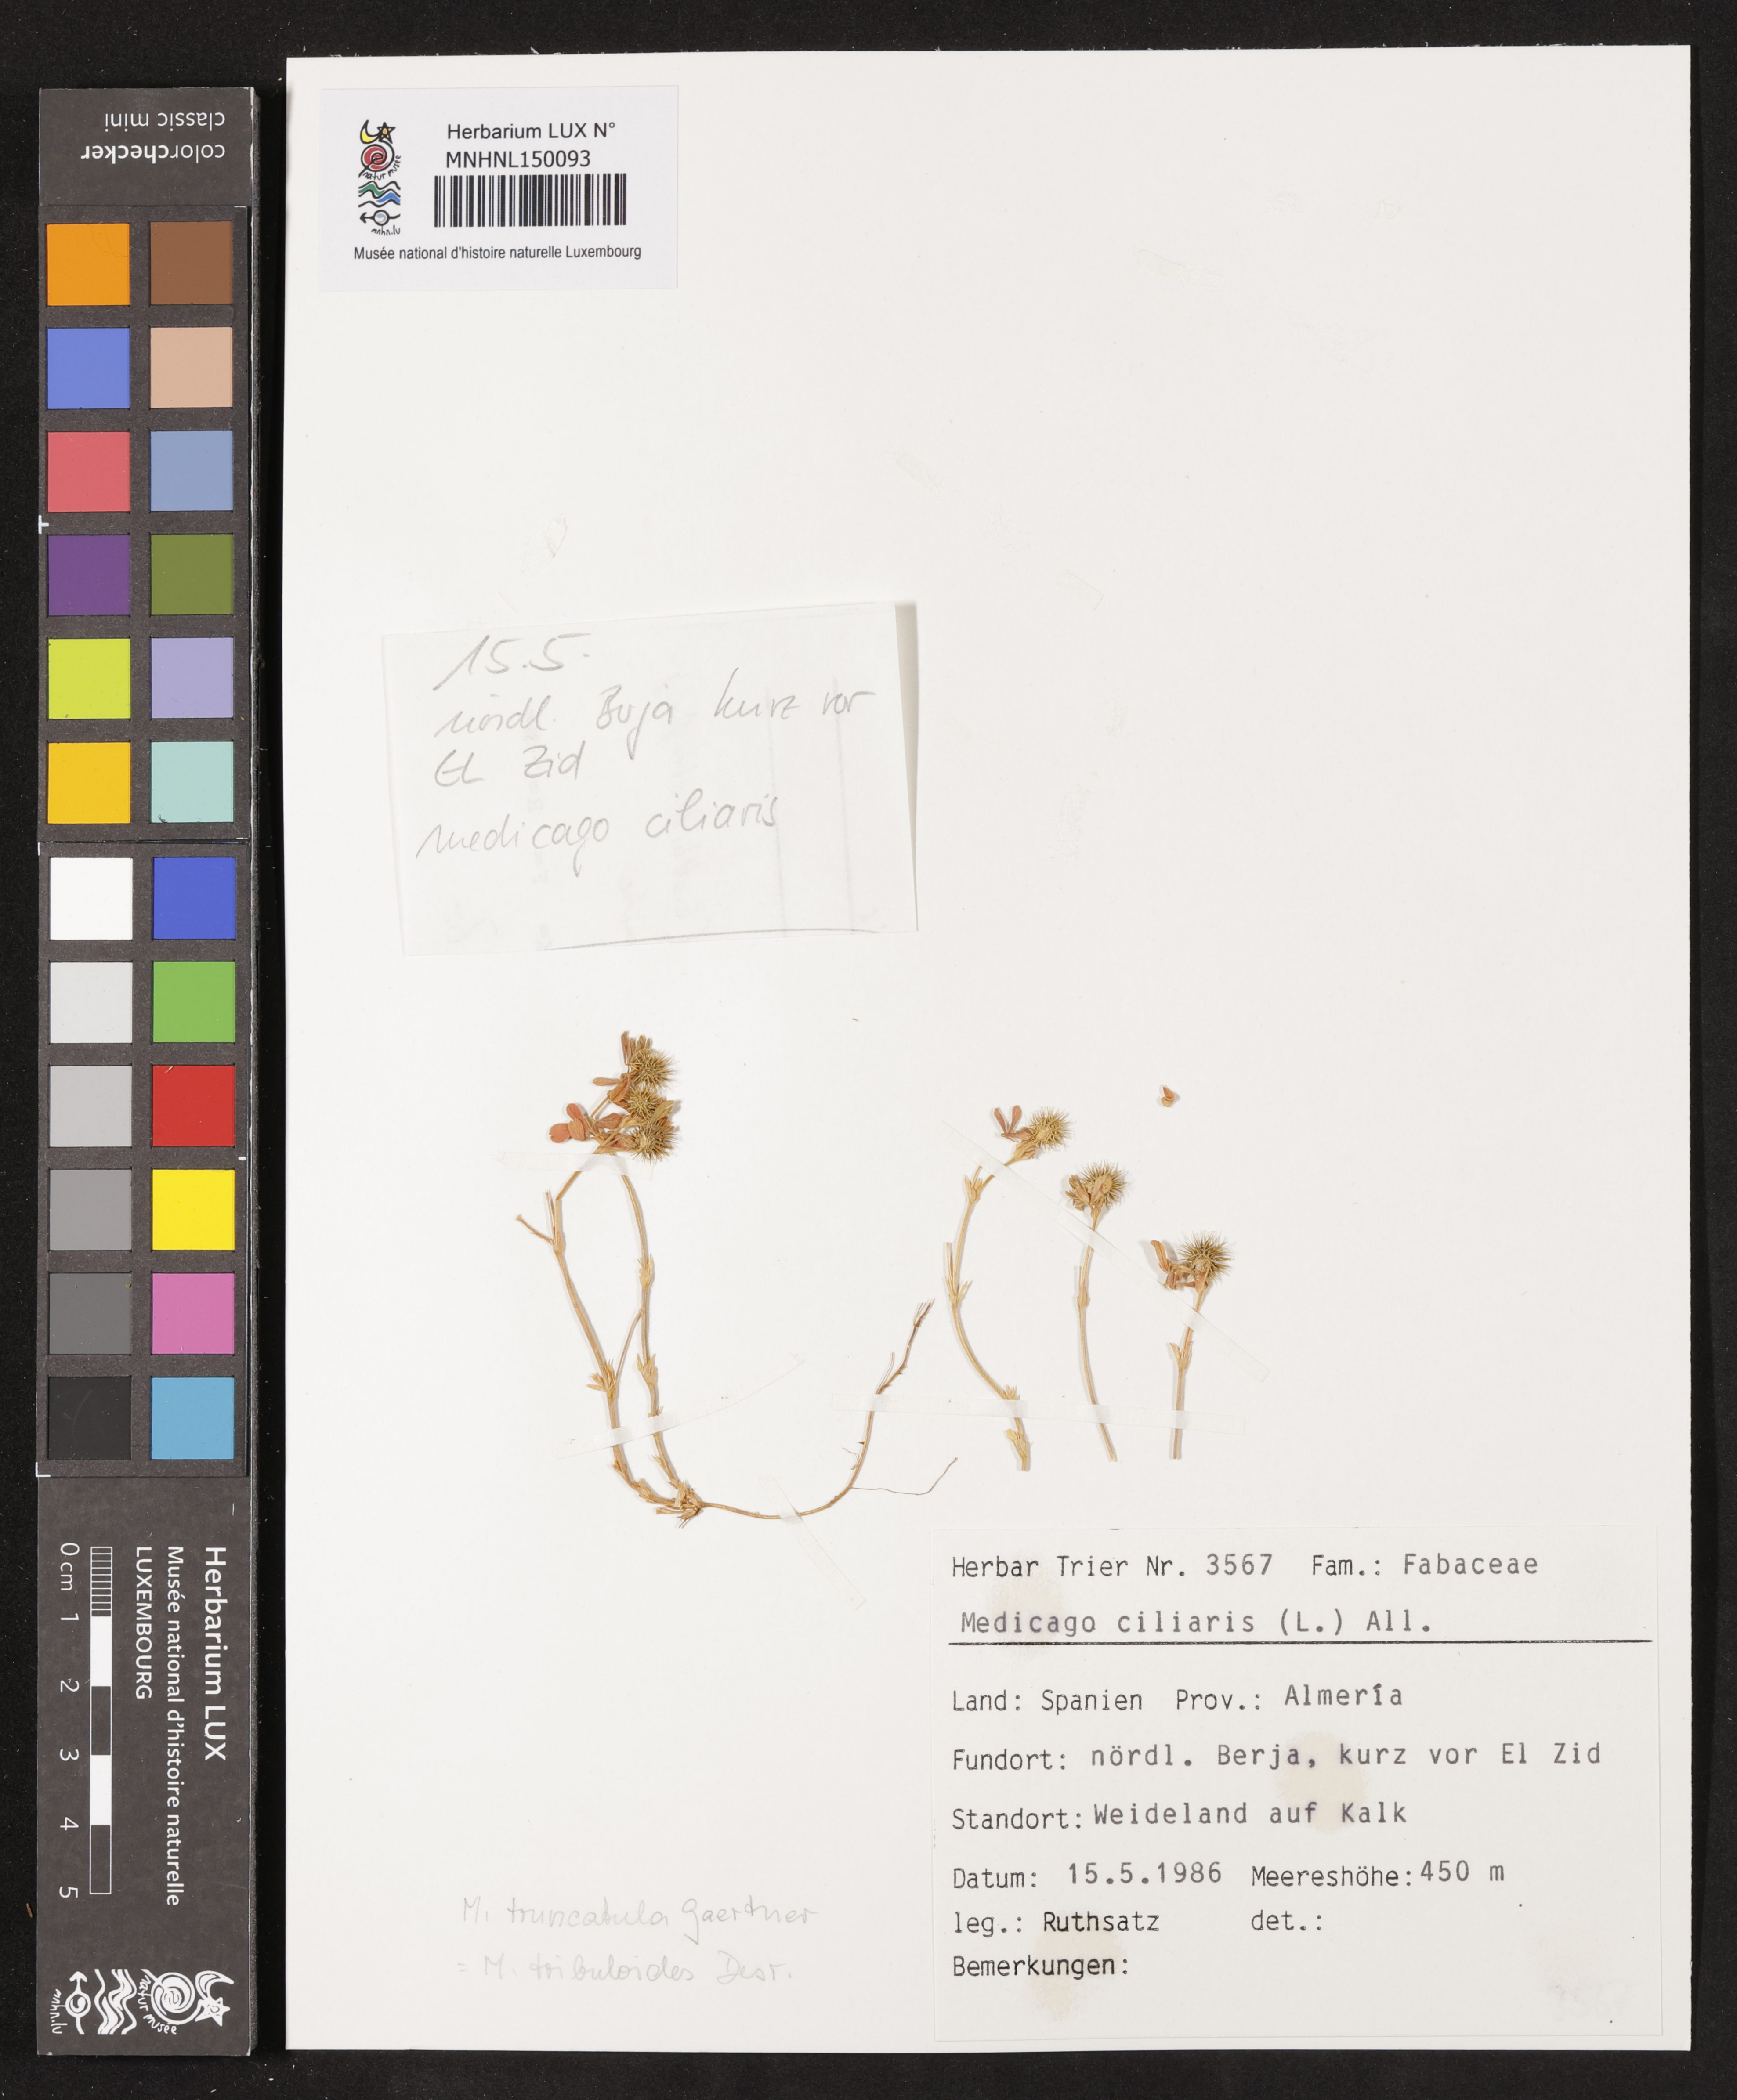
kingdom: Plantae
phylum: Tracheophyta
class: Magnoliopsida
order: Fabales
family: Fabaceae
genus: Medicago
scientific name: Medicago ciliaris
